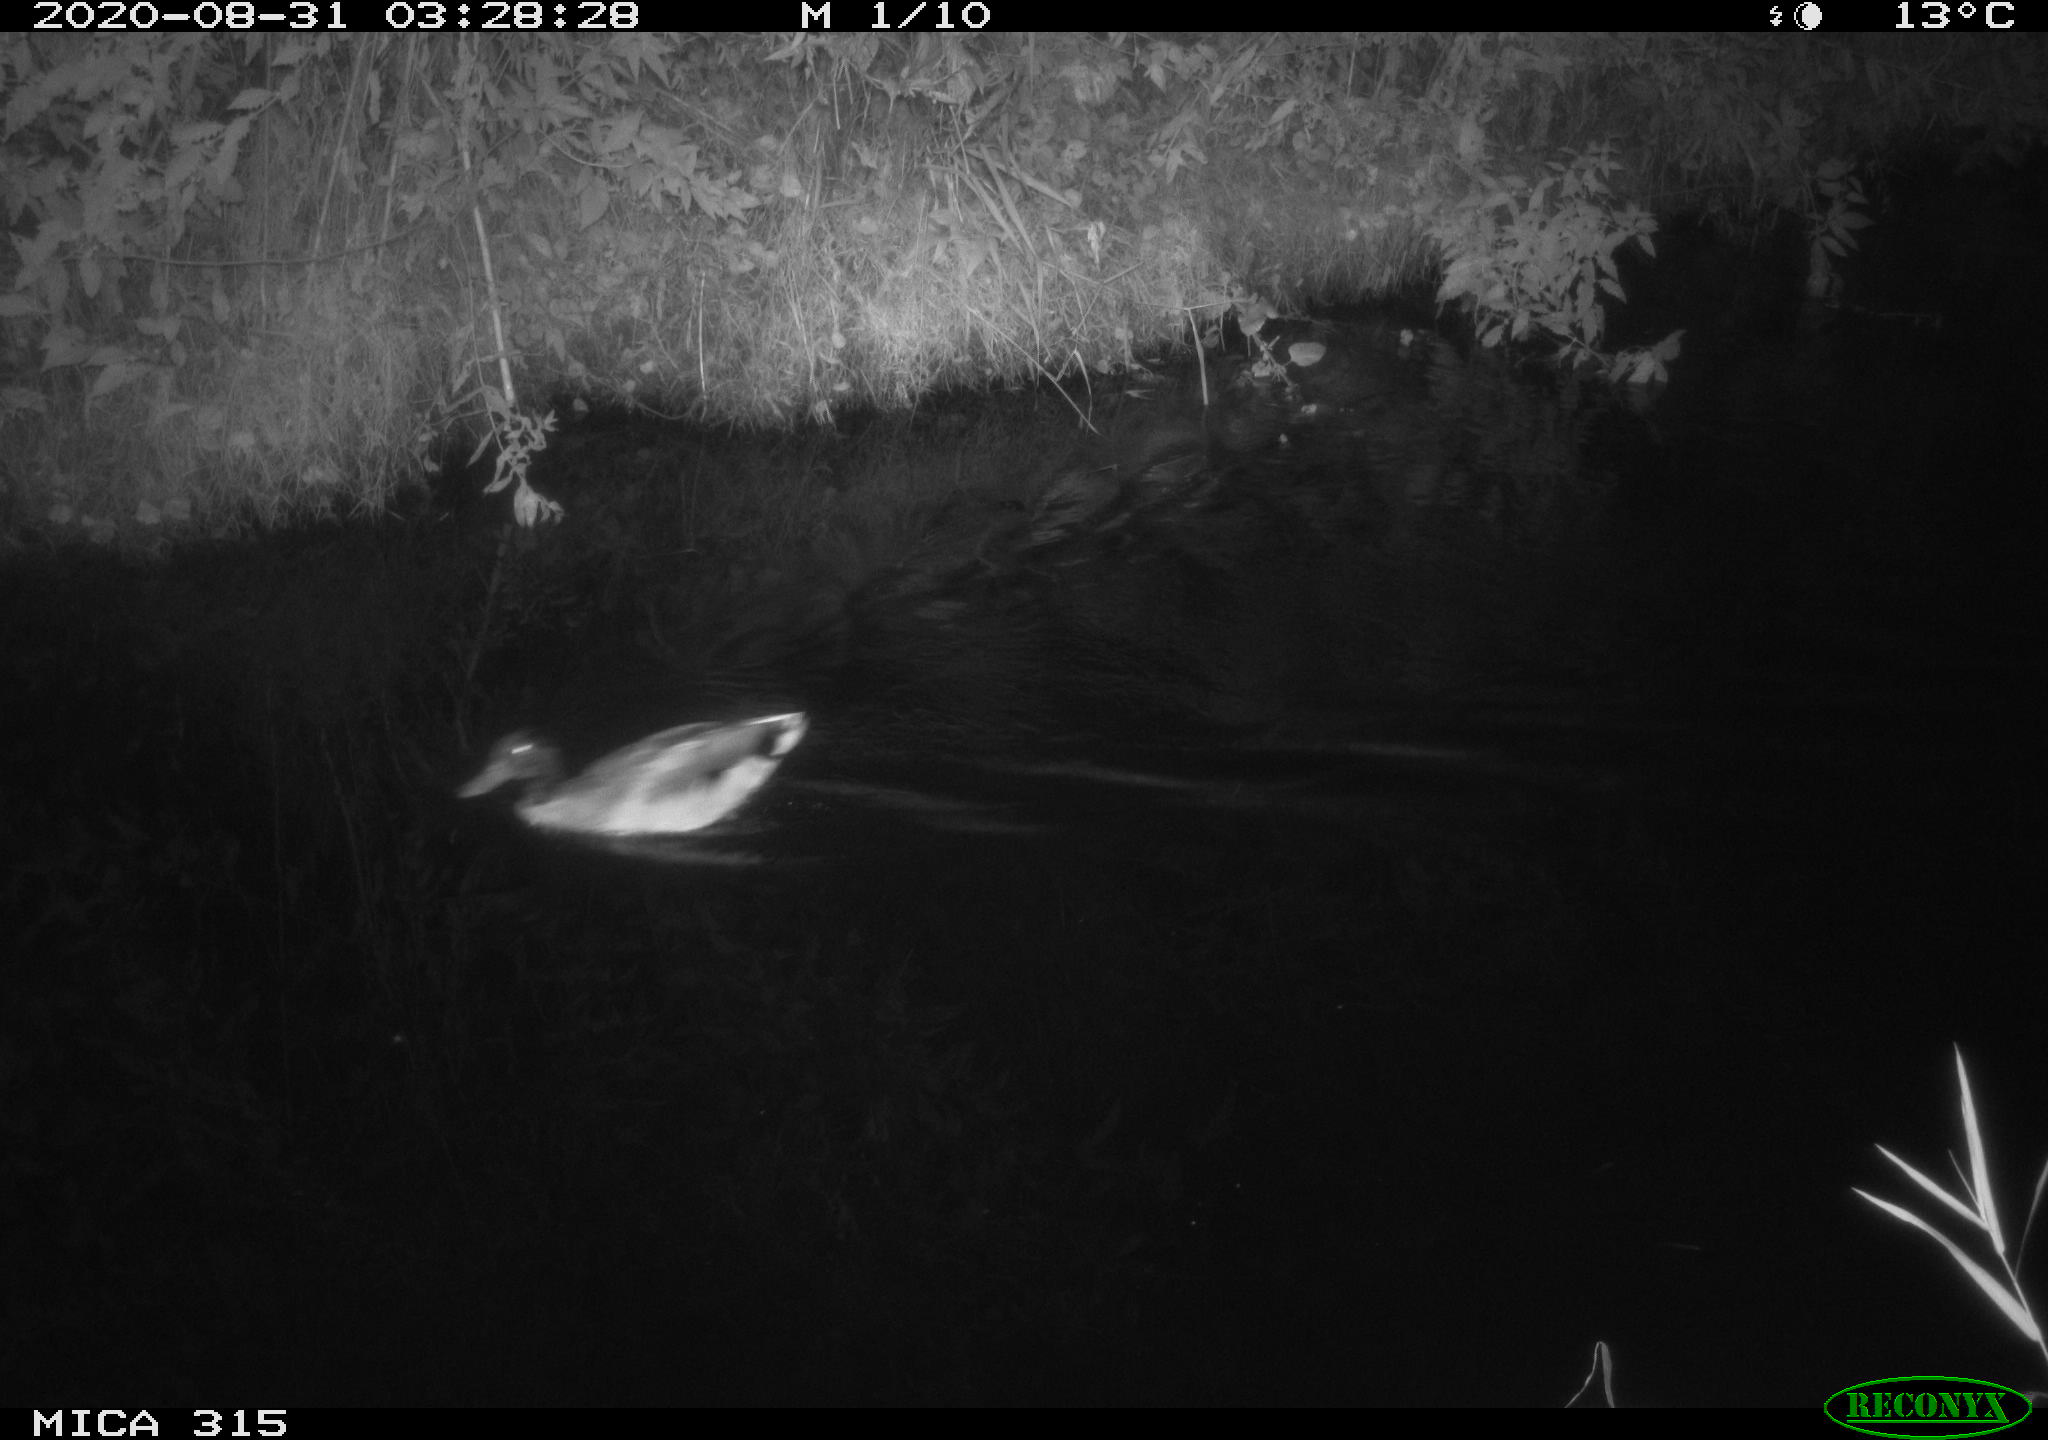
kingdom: Animalia
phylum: Chordata
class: Aves
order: Anseriformes
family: Anatidae
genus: Anas
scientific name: Anas platyrhynchos
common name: Mallard
